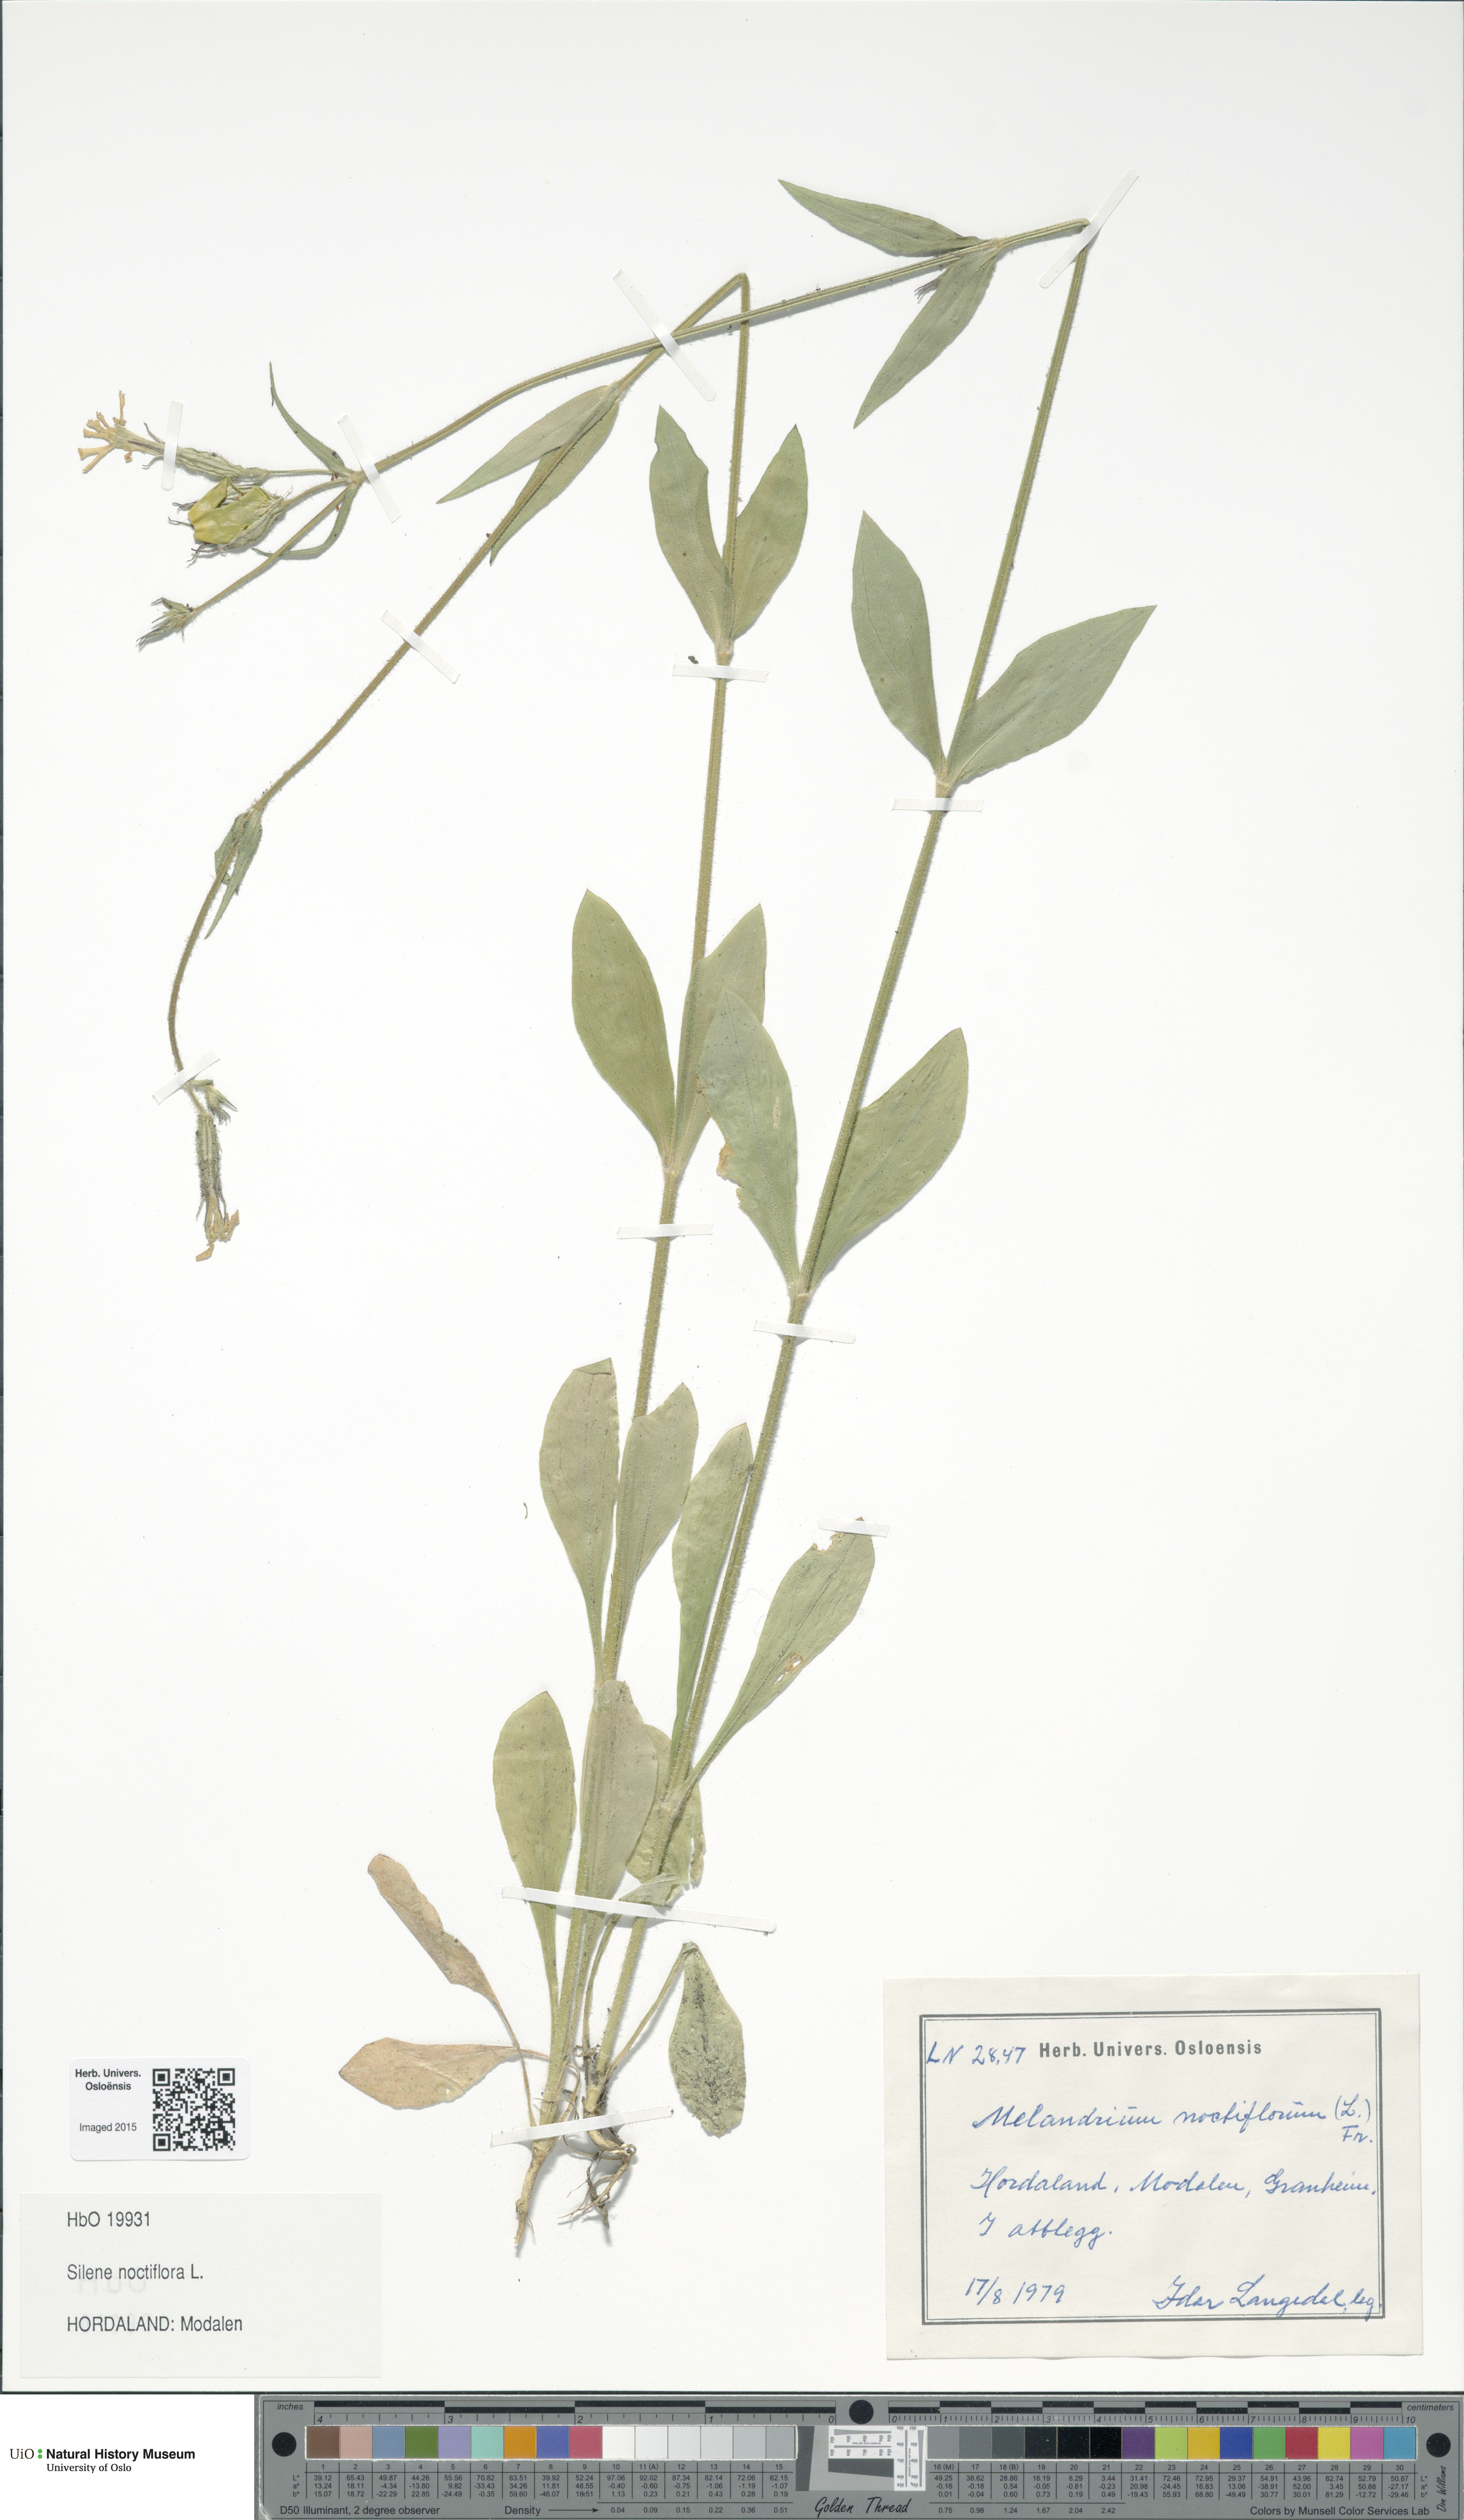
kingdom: Plantae
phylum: Tracheophyta
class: Magnoliopsida
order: Caryophyllales
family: Caryophyllaceae
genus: Silene
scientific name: Silene noctiflora
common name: Night-flowering catchfly
